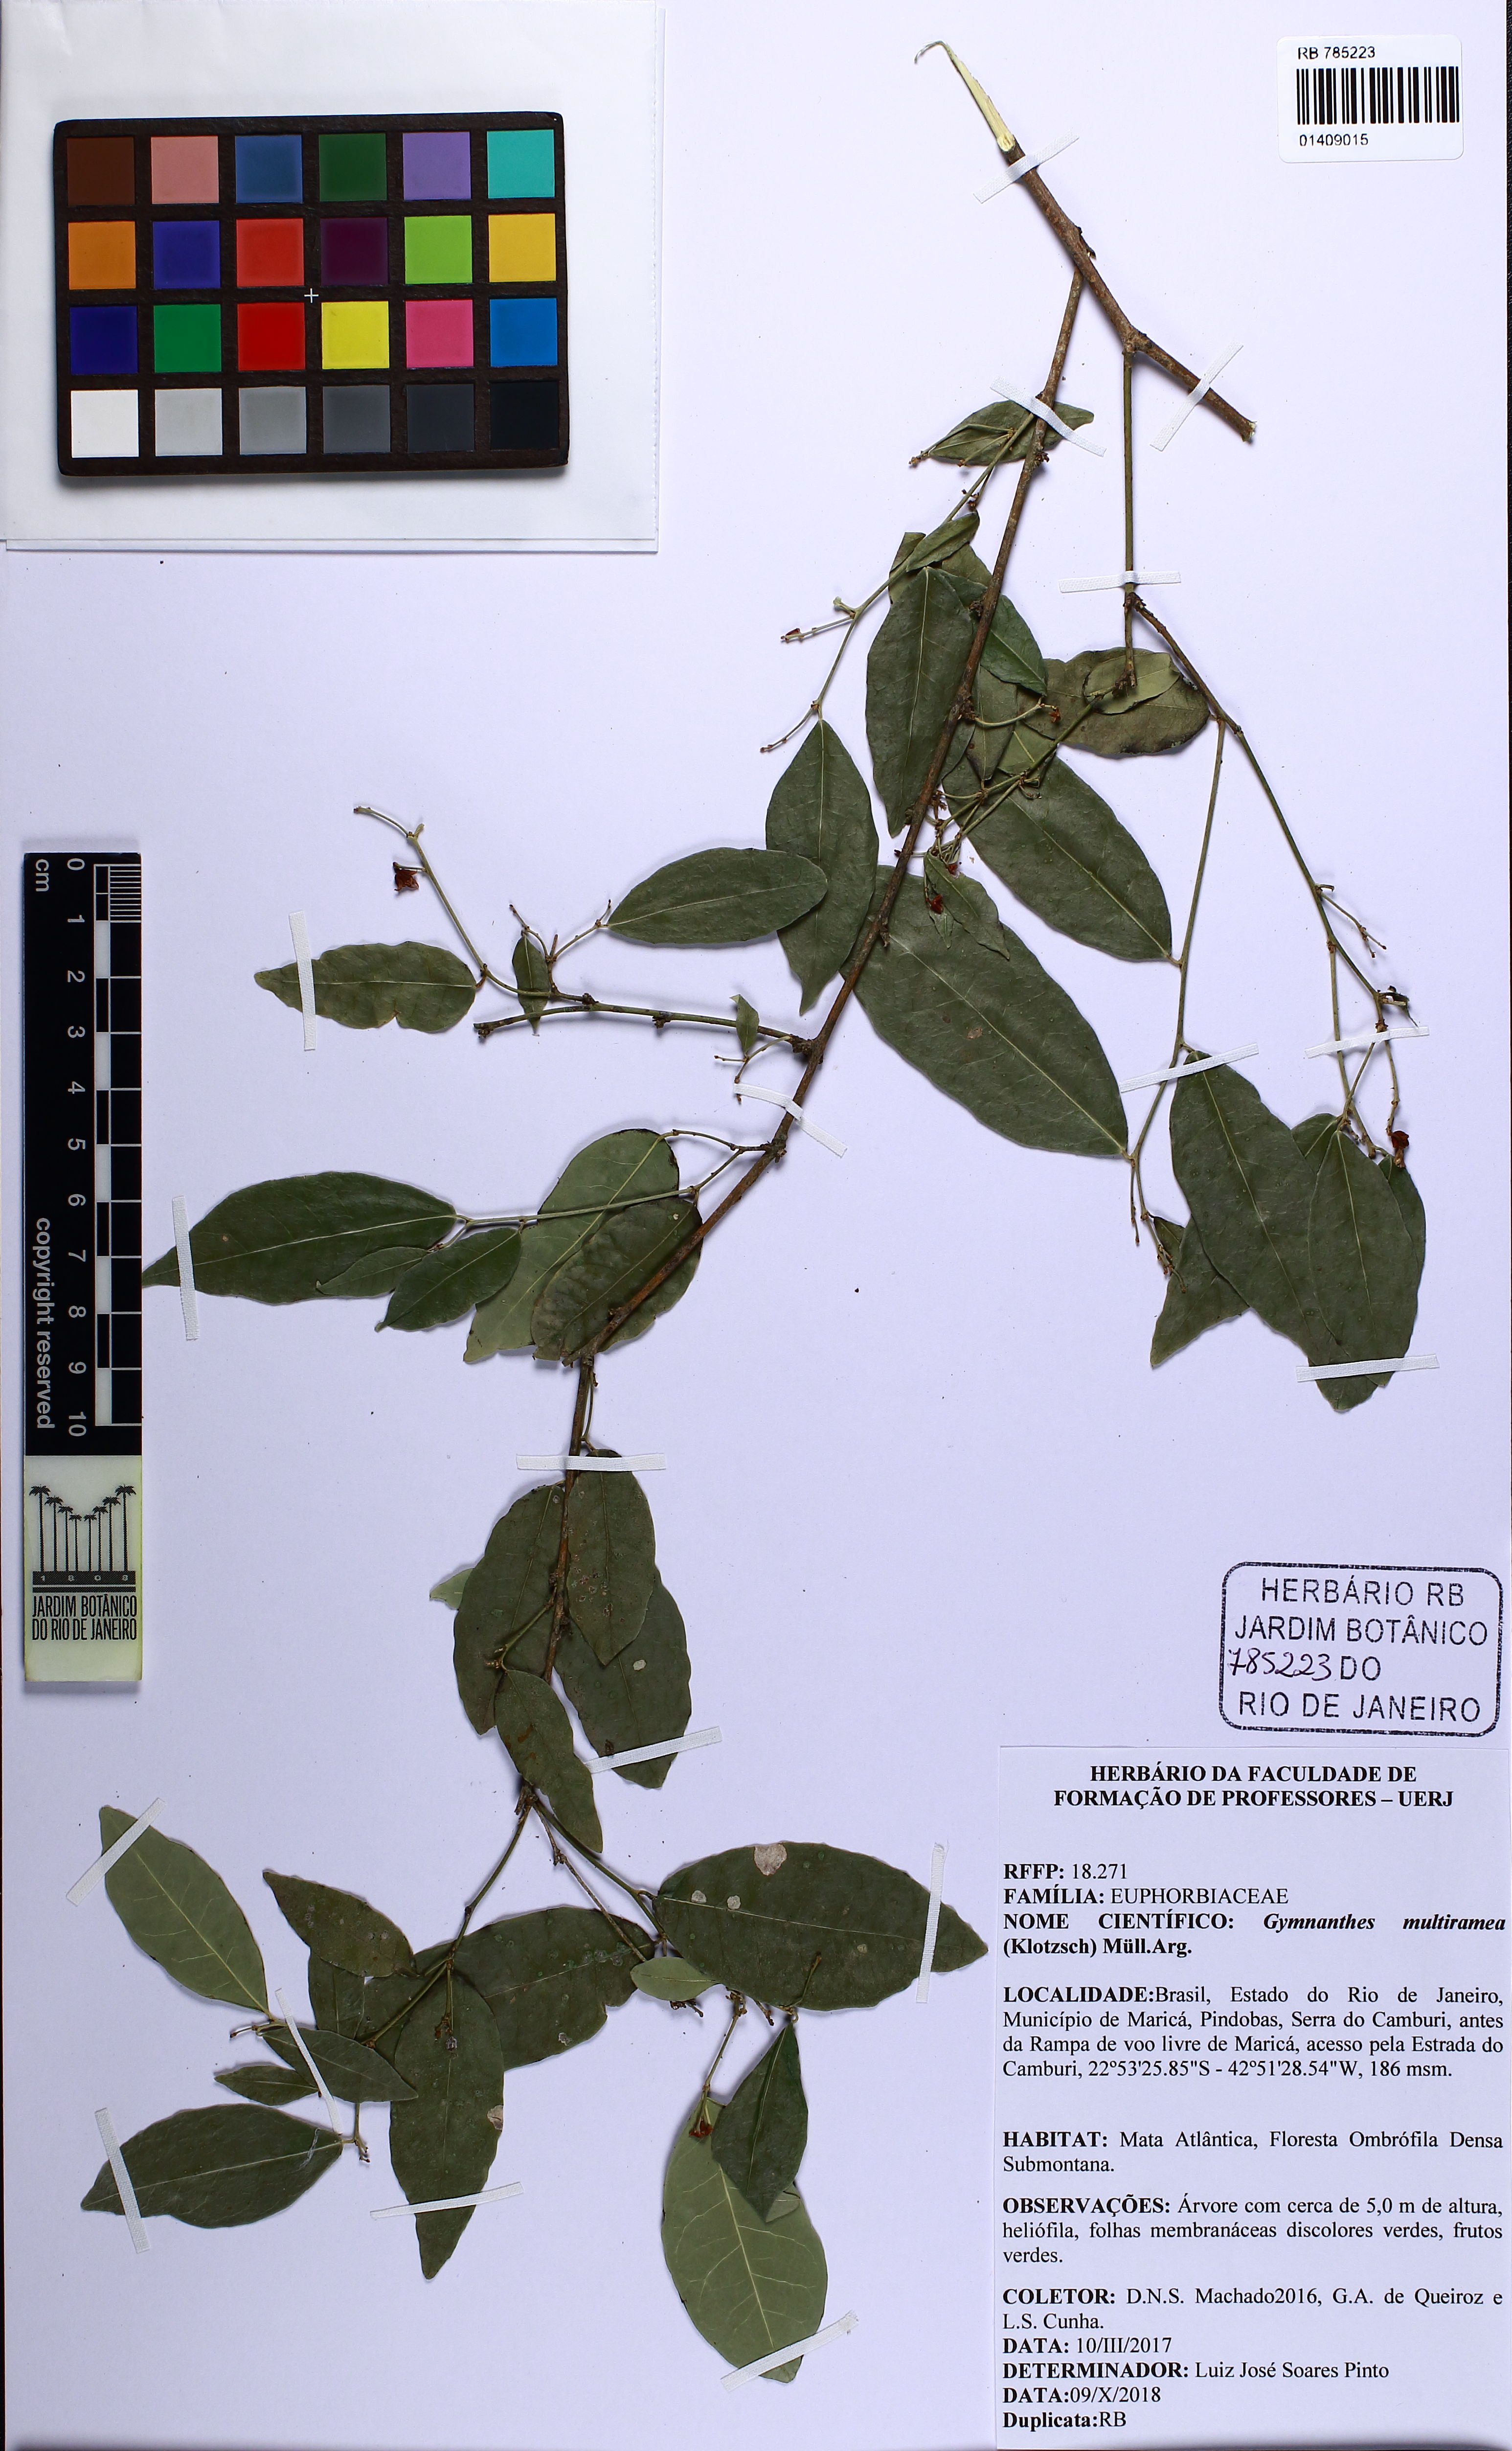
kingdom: Plantae
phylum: Tracheophyta
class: Magnoliopsida
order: Malpighiales
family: Euphorbiaceae
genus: Gymnanthes
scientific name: Gymnanthes glabrata
